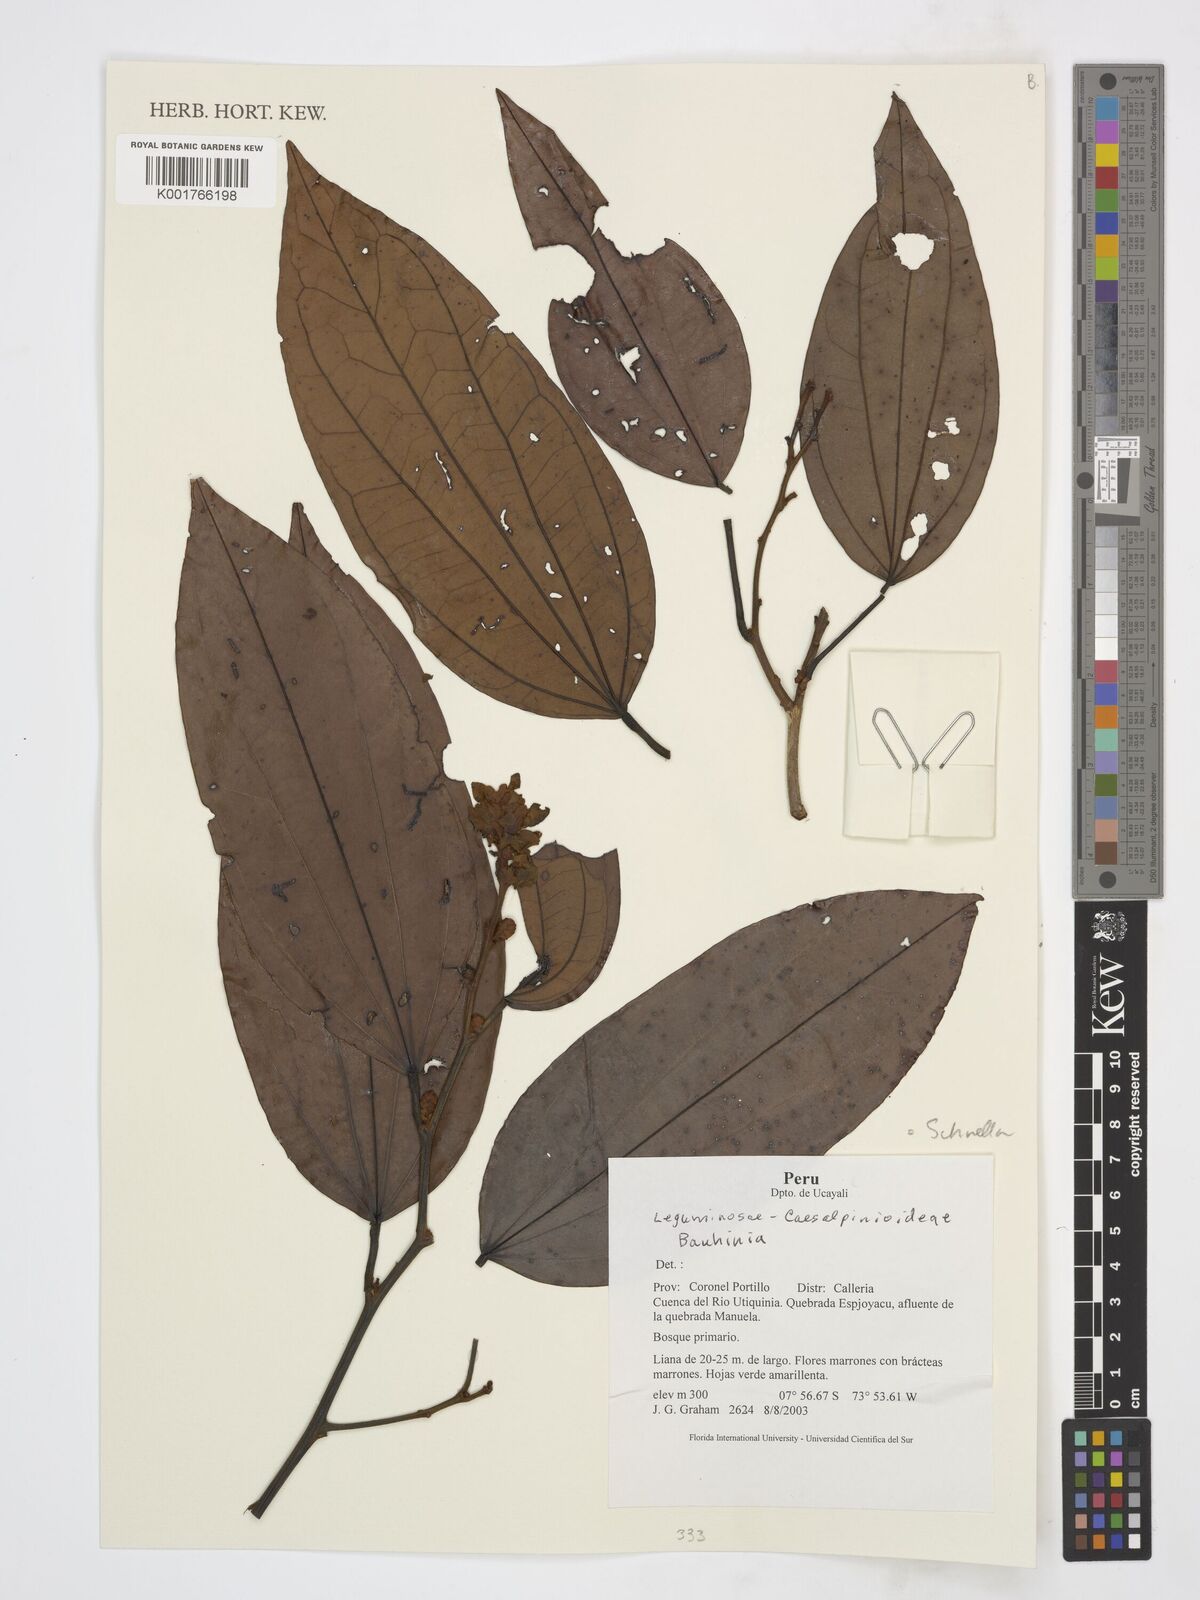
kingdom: Plantae
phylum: Tracheophyta
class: Magnoliopsida
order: Fabales
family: Fabaceae
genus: Schnella
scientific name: Schnella
